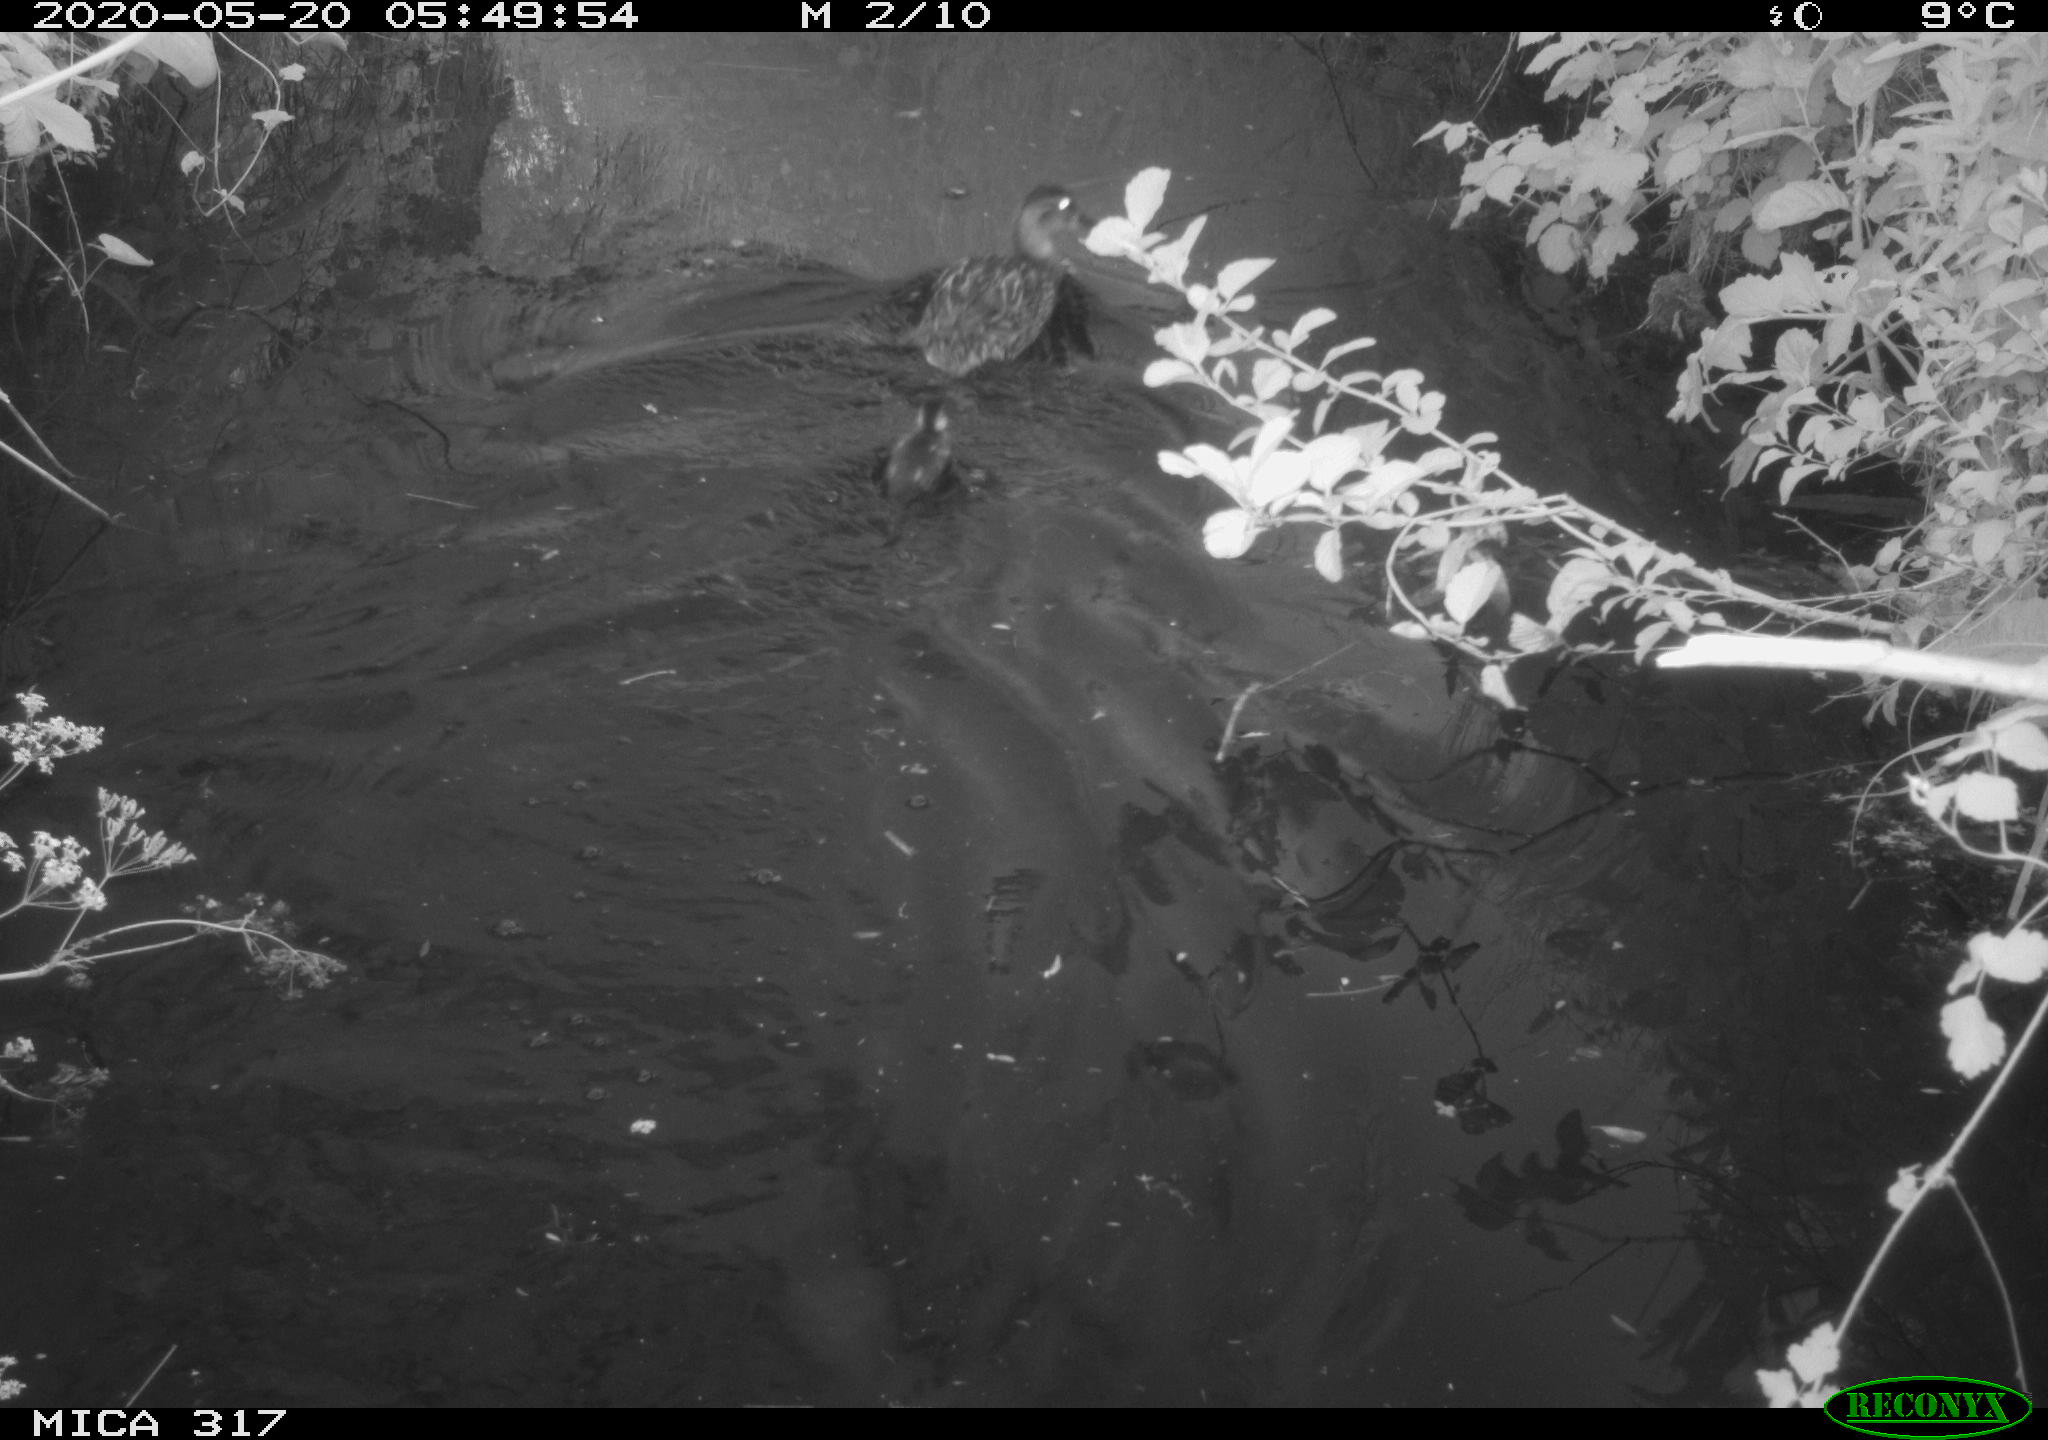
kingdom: Animalia
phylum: Chordata
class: Aves
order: Anseriformes
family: Anatidae
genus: Anas
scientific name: Anas platyrhynchos
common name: Mallard
